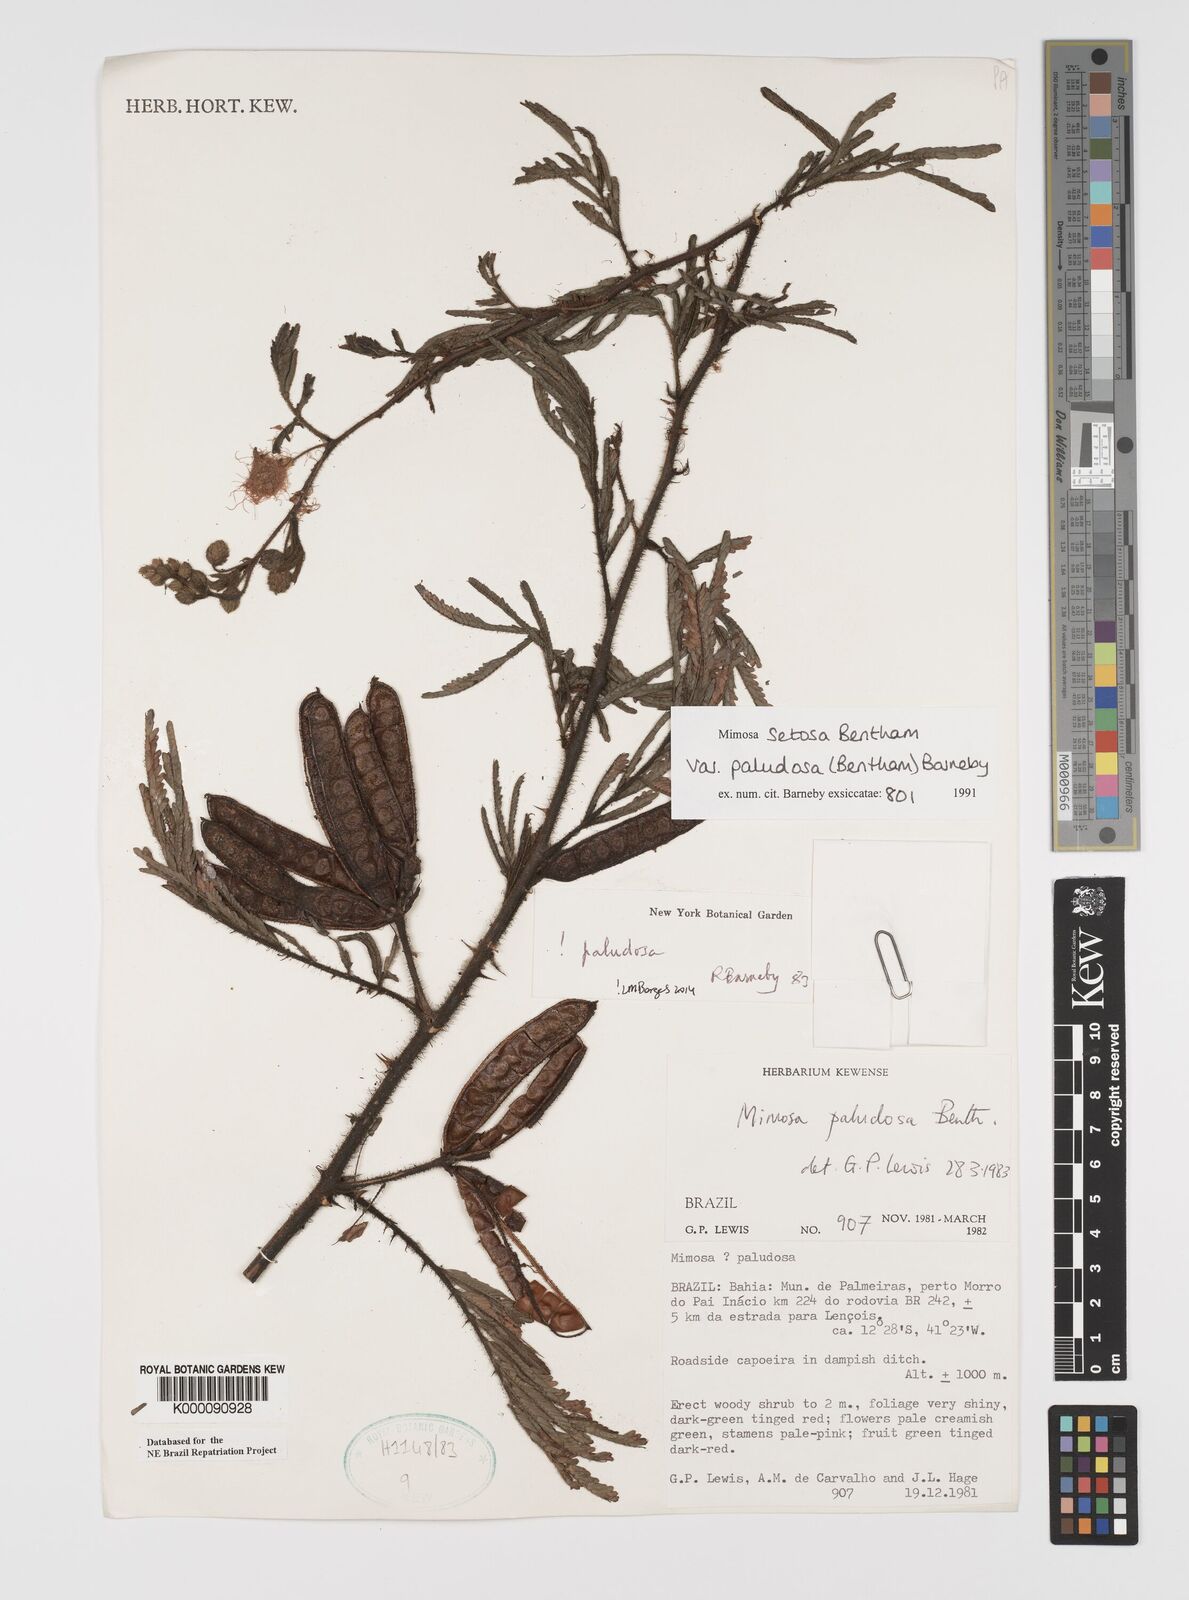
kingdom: Plantae
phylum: Tracheophyta
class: Magnoliopsida
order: Fabales
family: Fabaceae
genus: Mimosa
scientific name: Mimosa paludosa
